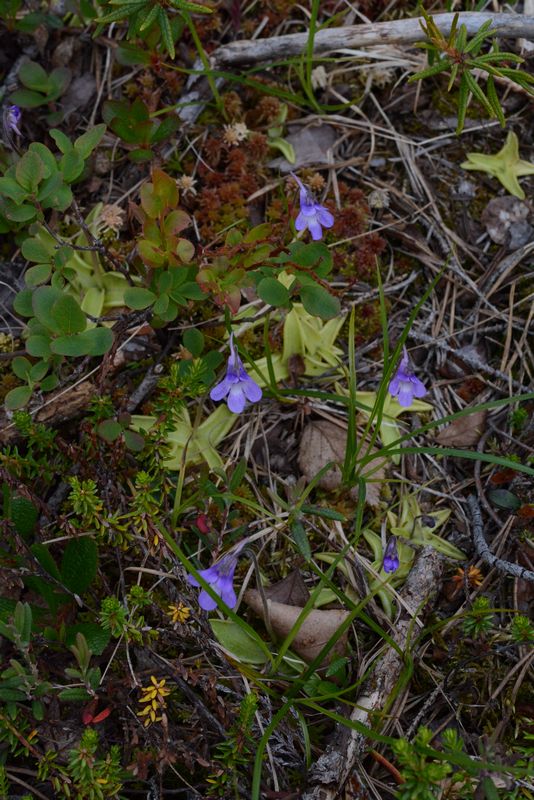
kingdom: Plantae
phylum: Tracheophyta
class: Magnoliopsida
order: Lamiales
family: Lentibulariaceae
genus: Pinguicula
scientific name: Pinguicula vulgaris
